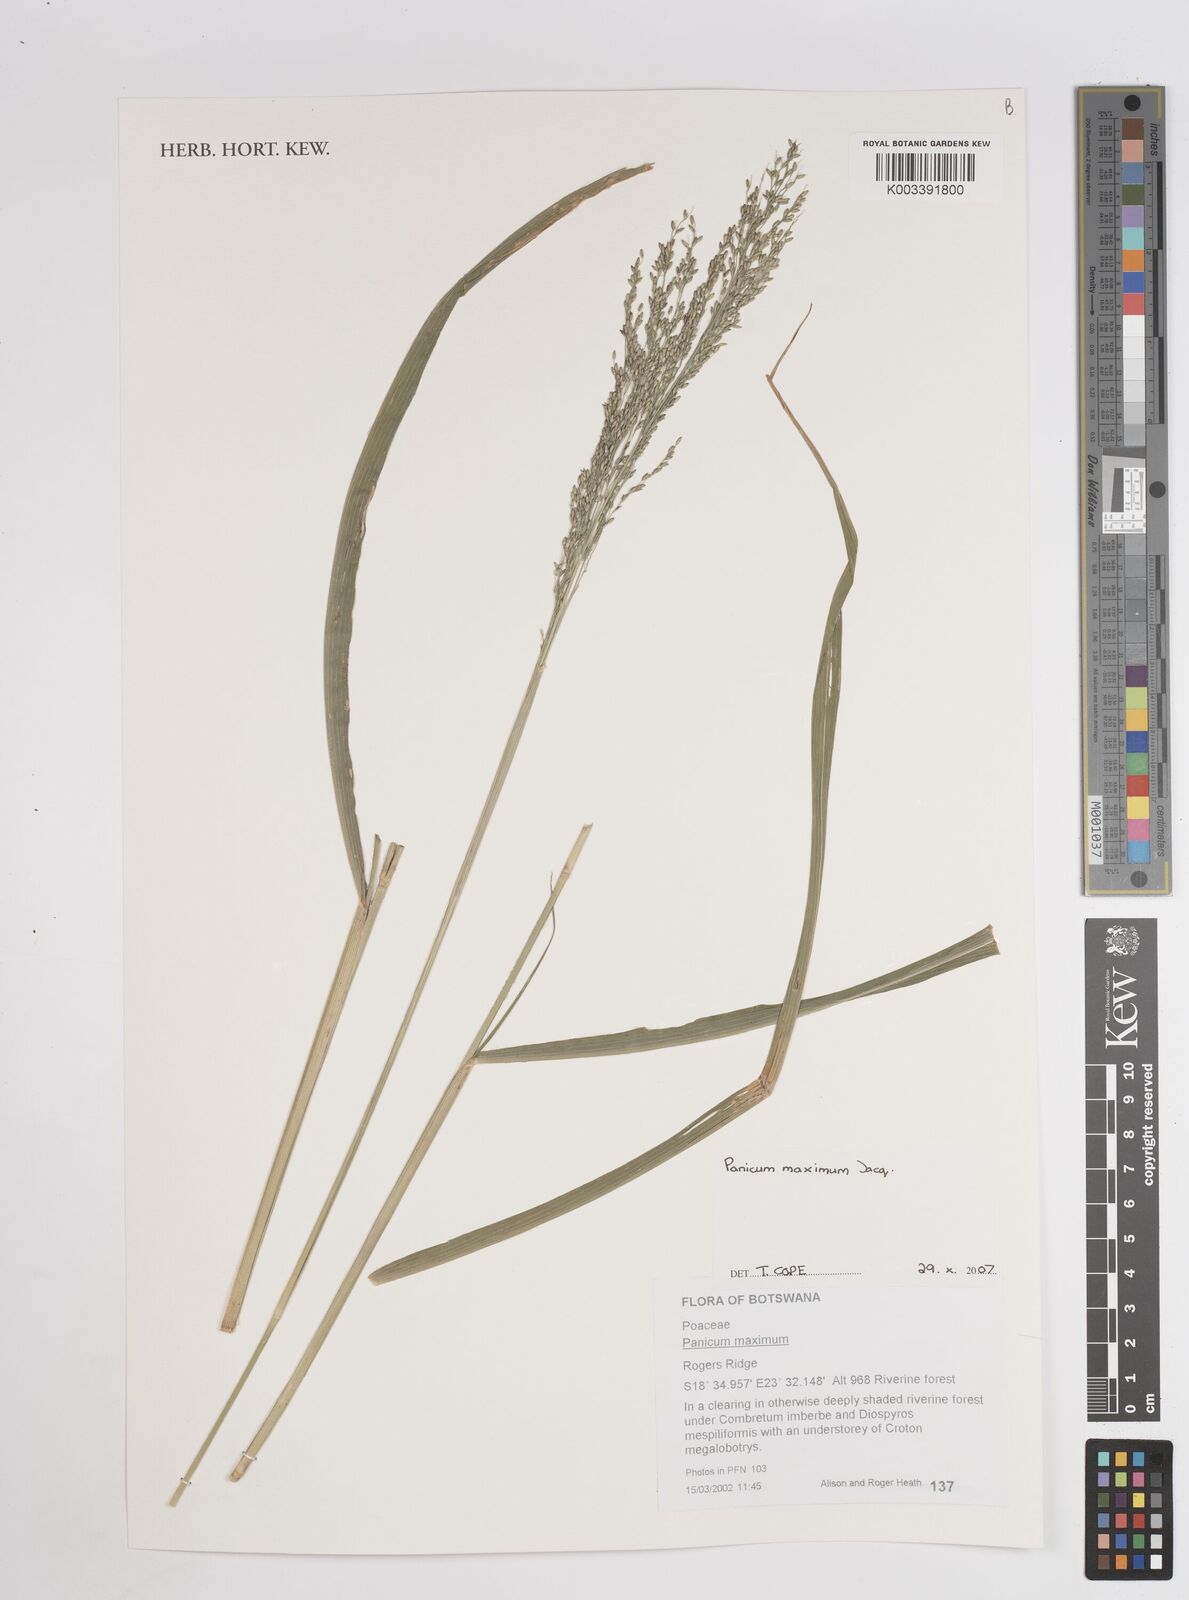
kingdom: Plantae
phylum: Tracheophyta
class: Liliopsida
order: Poales
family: Poaceae
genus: Megathyrsus
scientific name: Megathyrsus maximus
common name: Guineagrass
